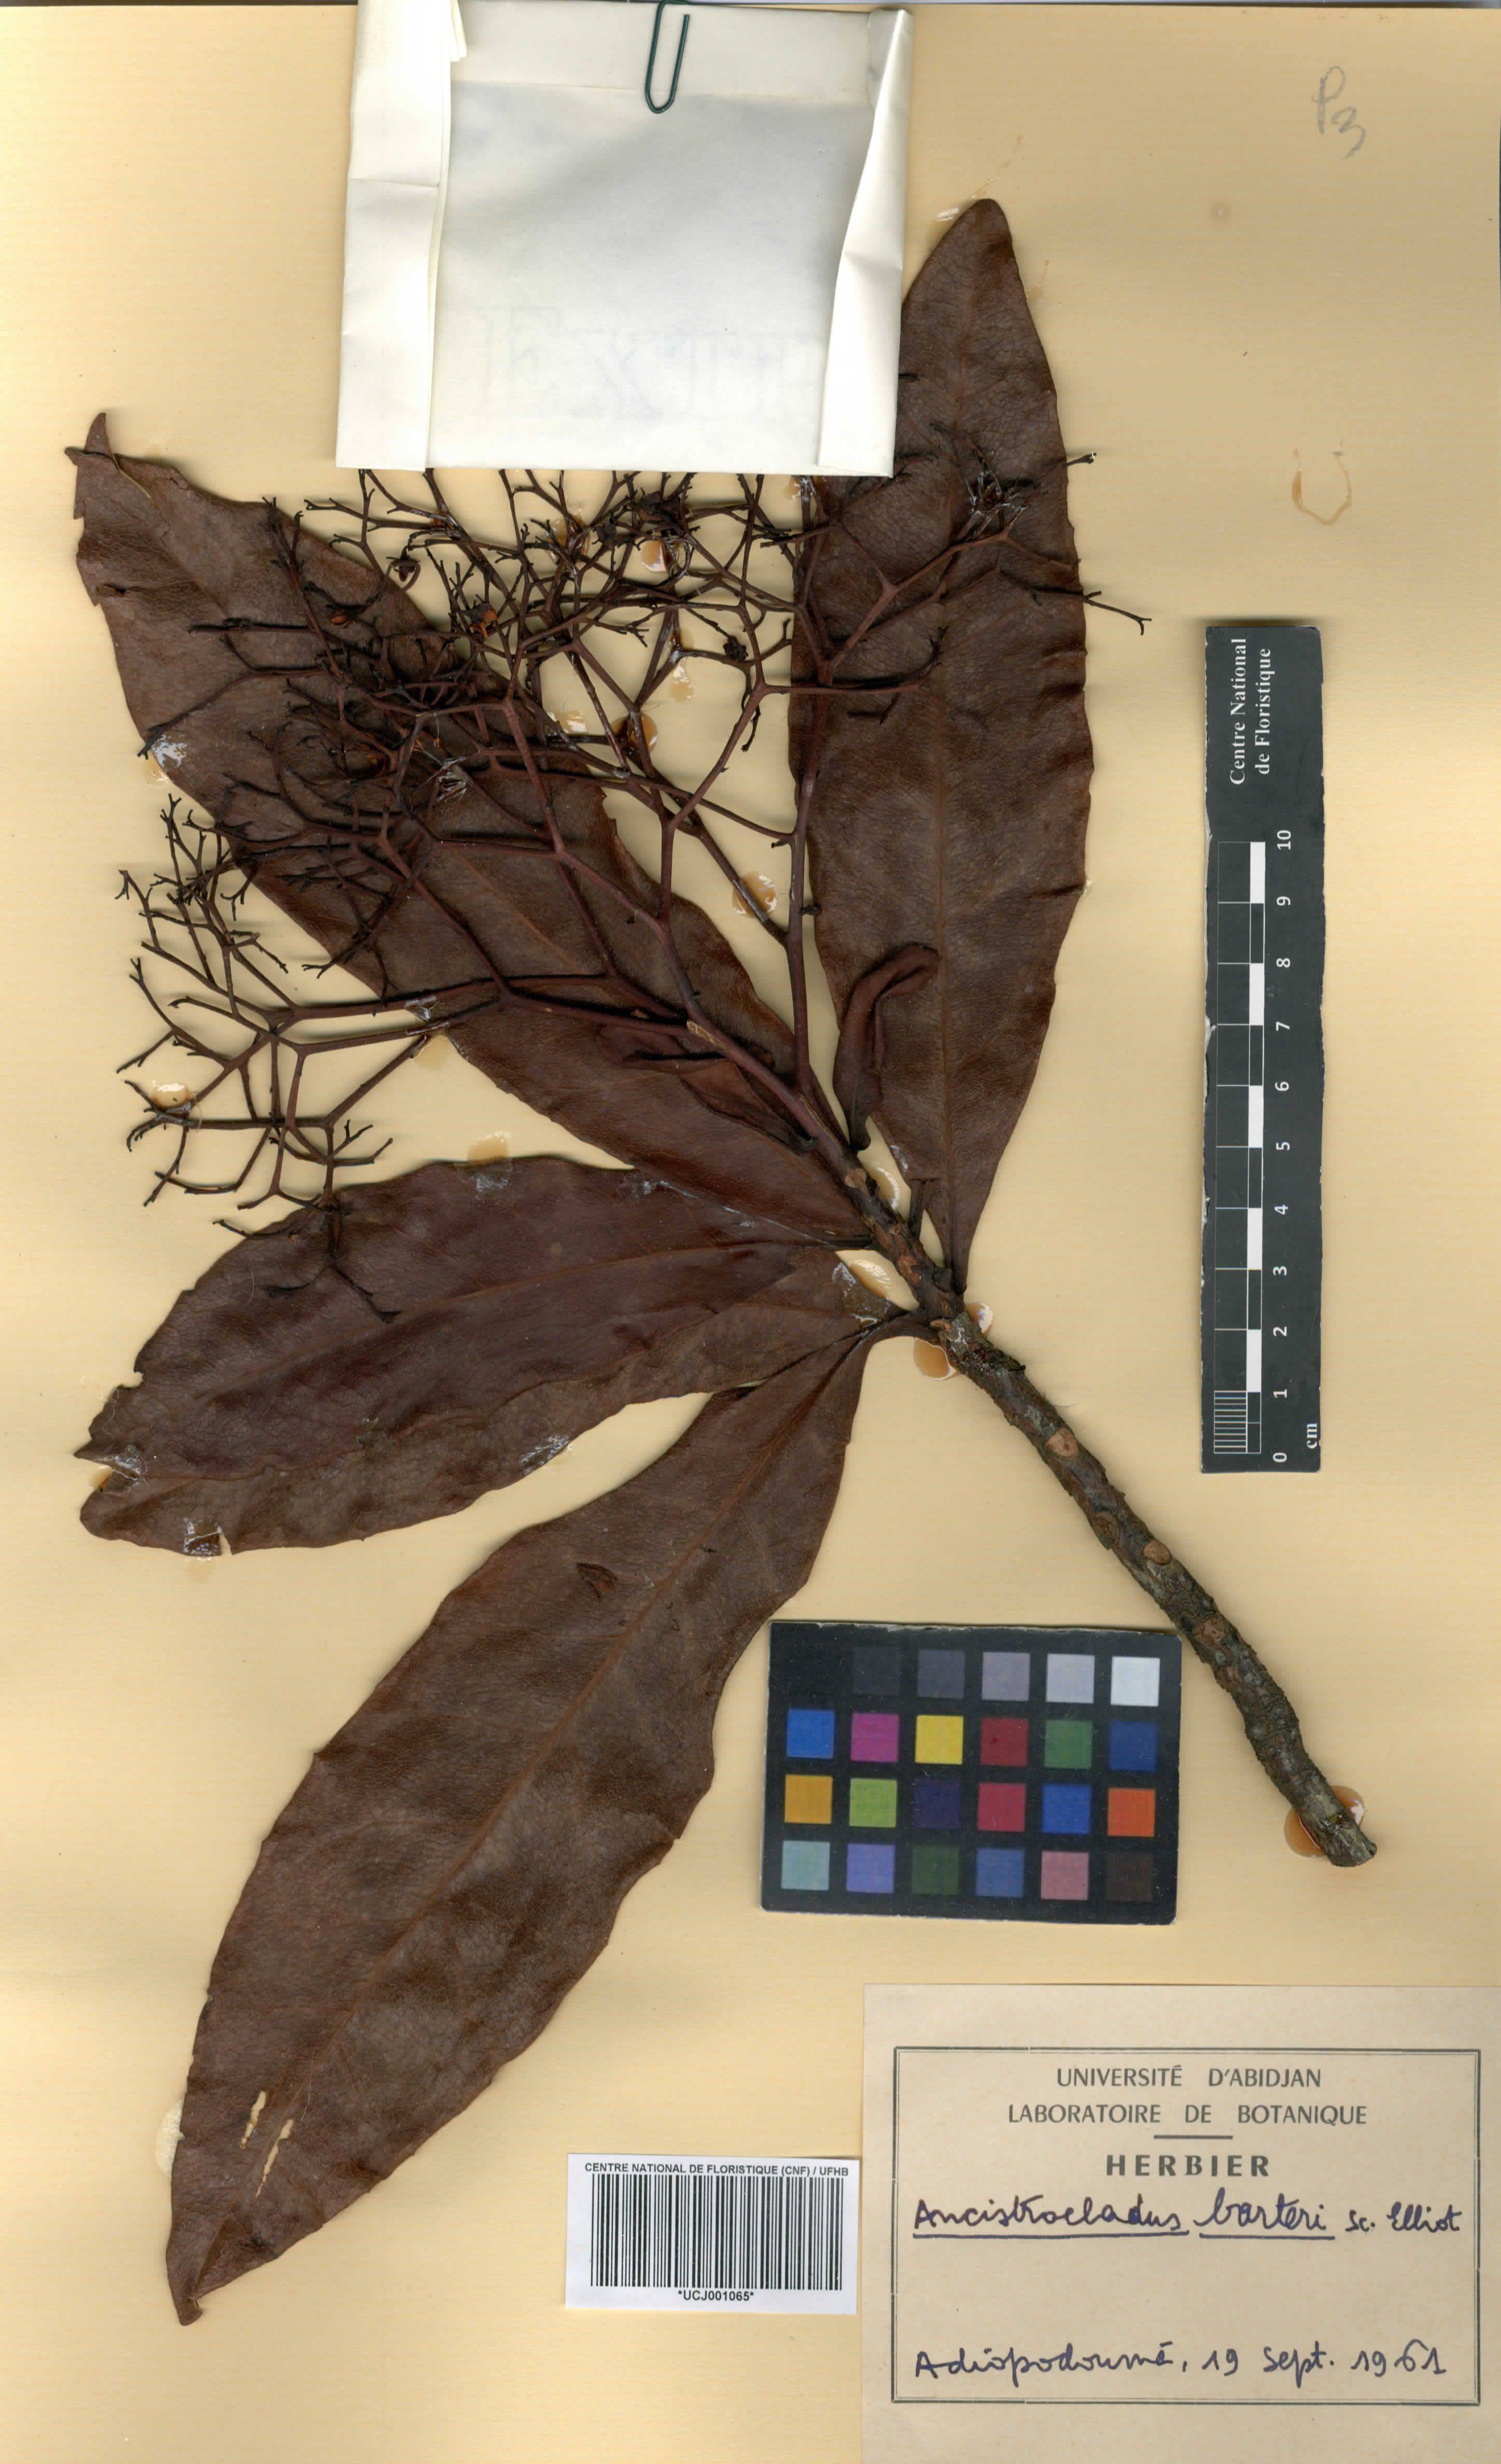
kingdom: Plantae
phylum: Tracheophyta
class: Magnoliopsida
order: Caryophyllales
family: Ancistrocladaceae
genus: Ancistrocladus
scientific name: Ancistrocladus barteri
